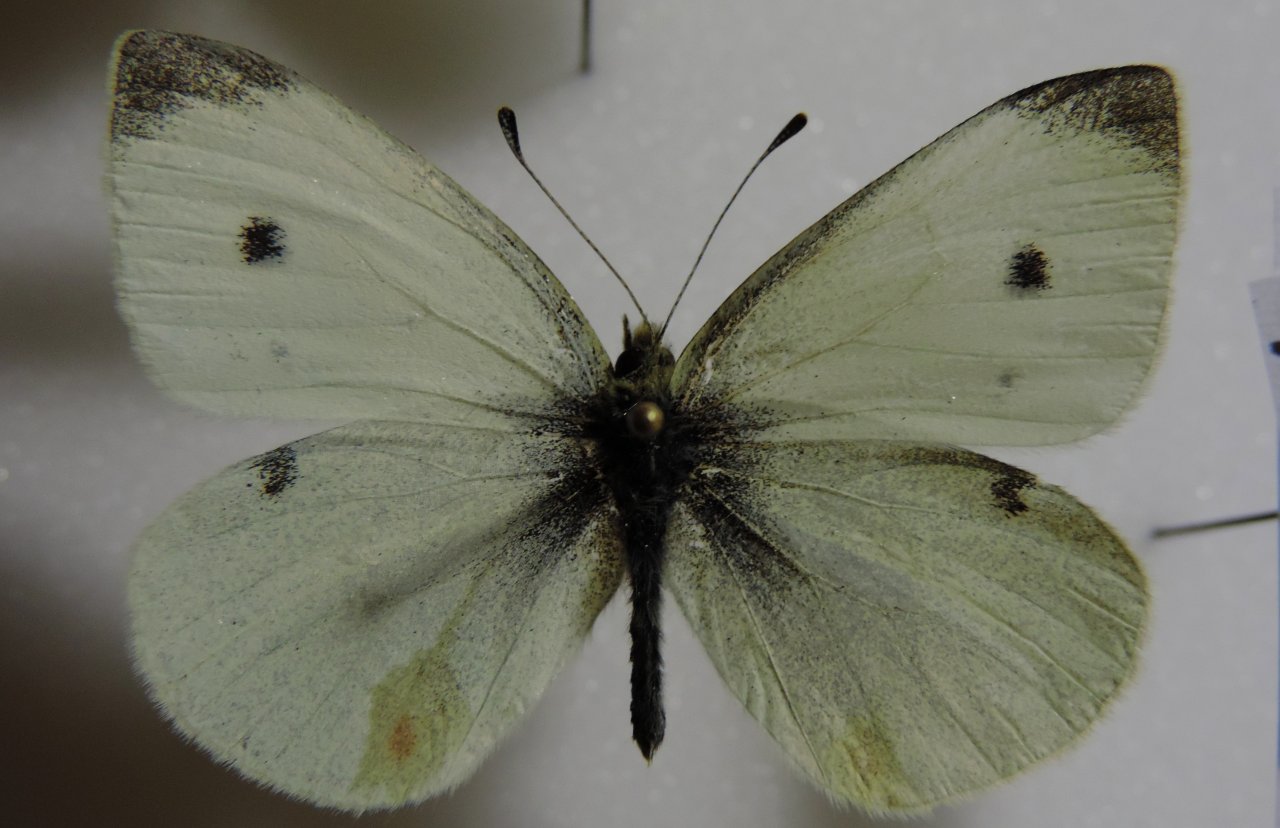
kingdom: Animalia
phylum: Arthropoda
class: Insecta
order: Lepidoptera
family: Pieridae
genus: Pieris
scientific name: Pieris rapae
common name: Cabbage White
